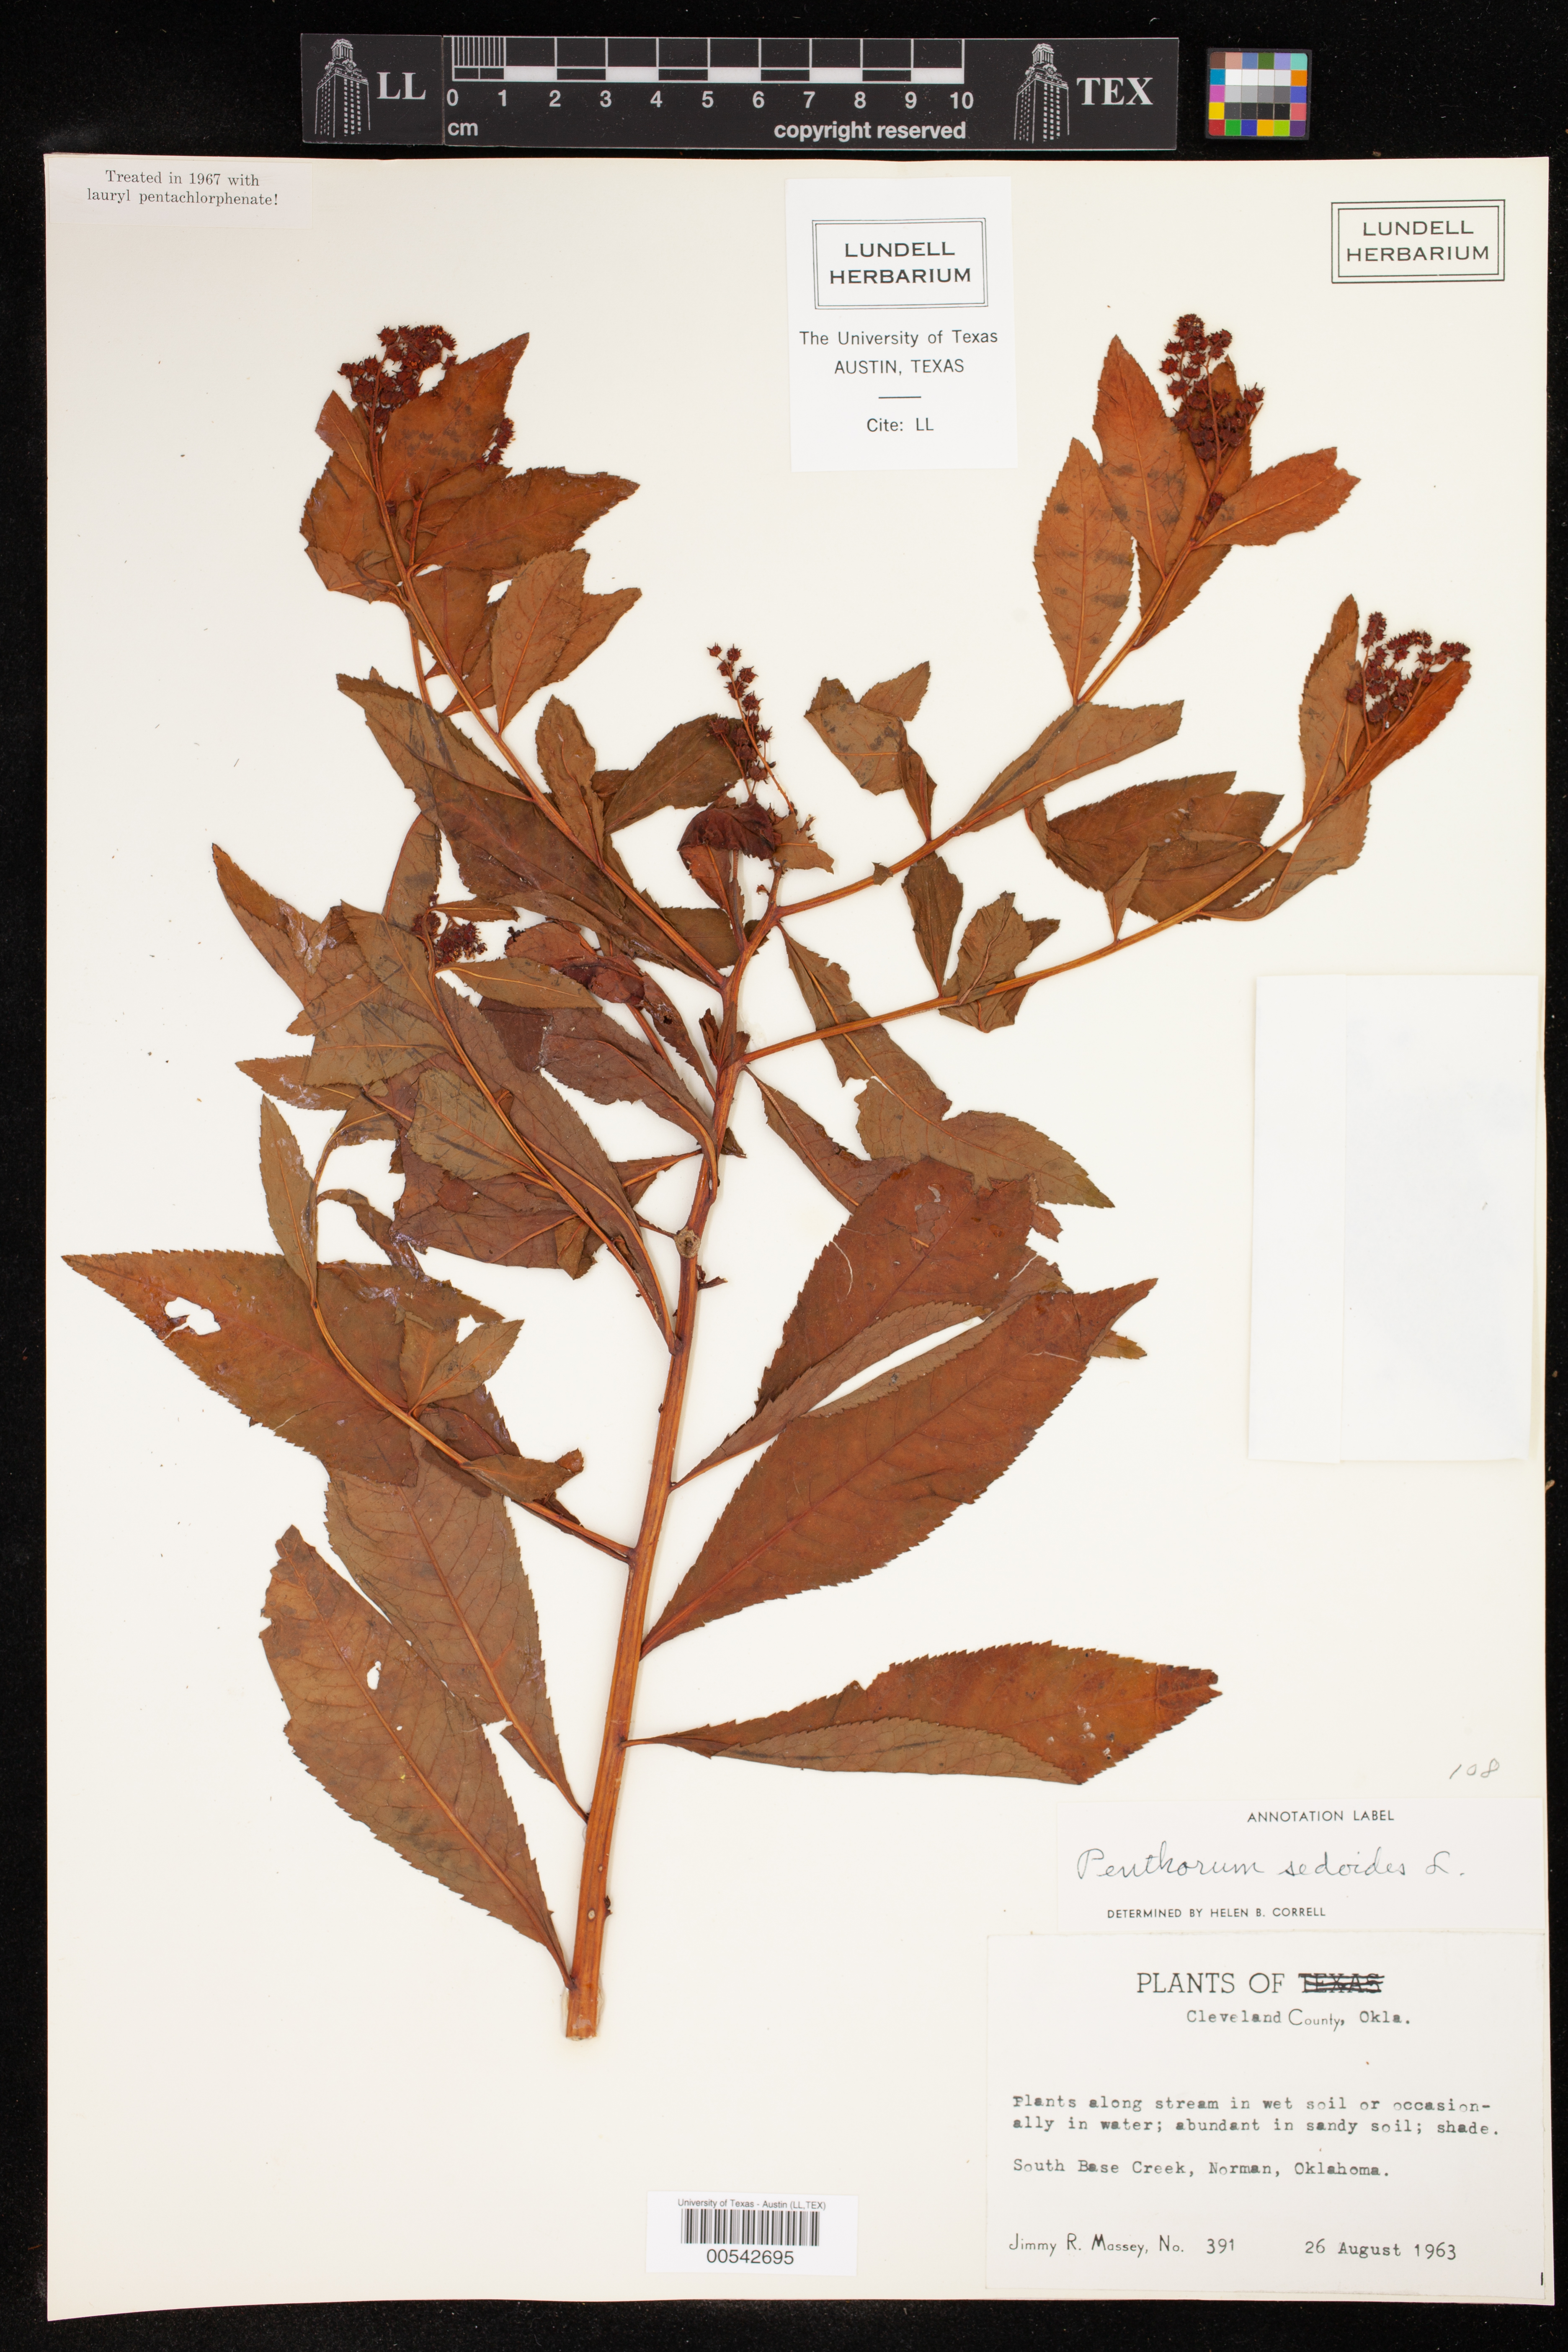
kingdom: Plantae
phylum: Tracheophyta
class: Magnoliopsida
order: Saxifragales
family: Penthoraceae
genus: Penthorum
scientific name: Penthorum sedoides
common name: Ditch stonecrop
